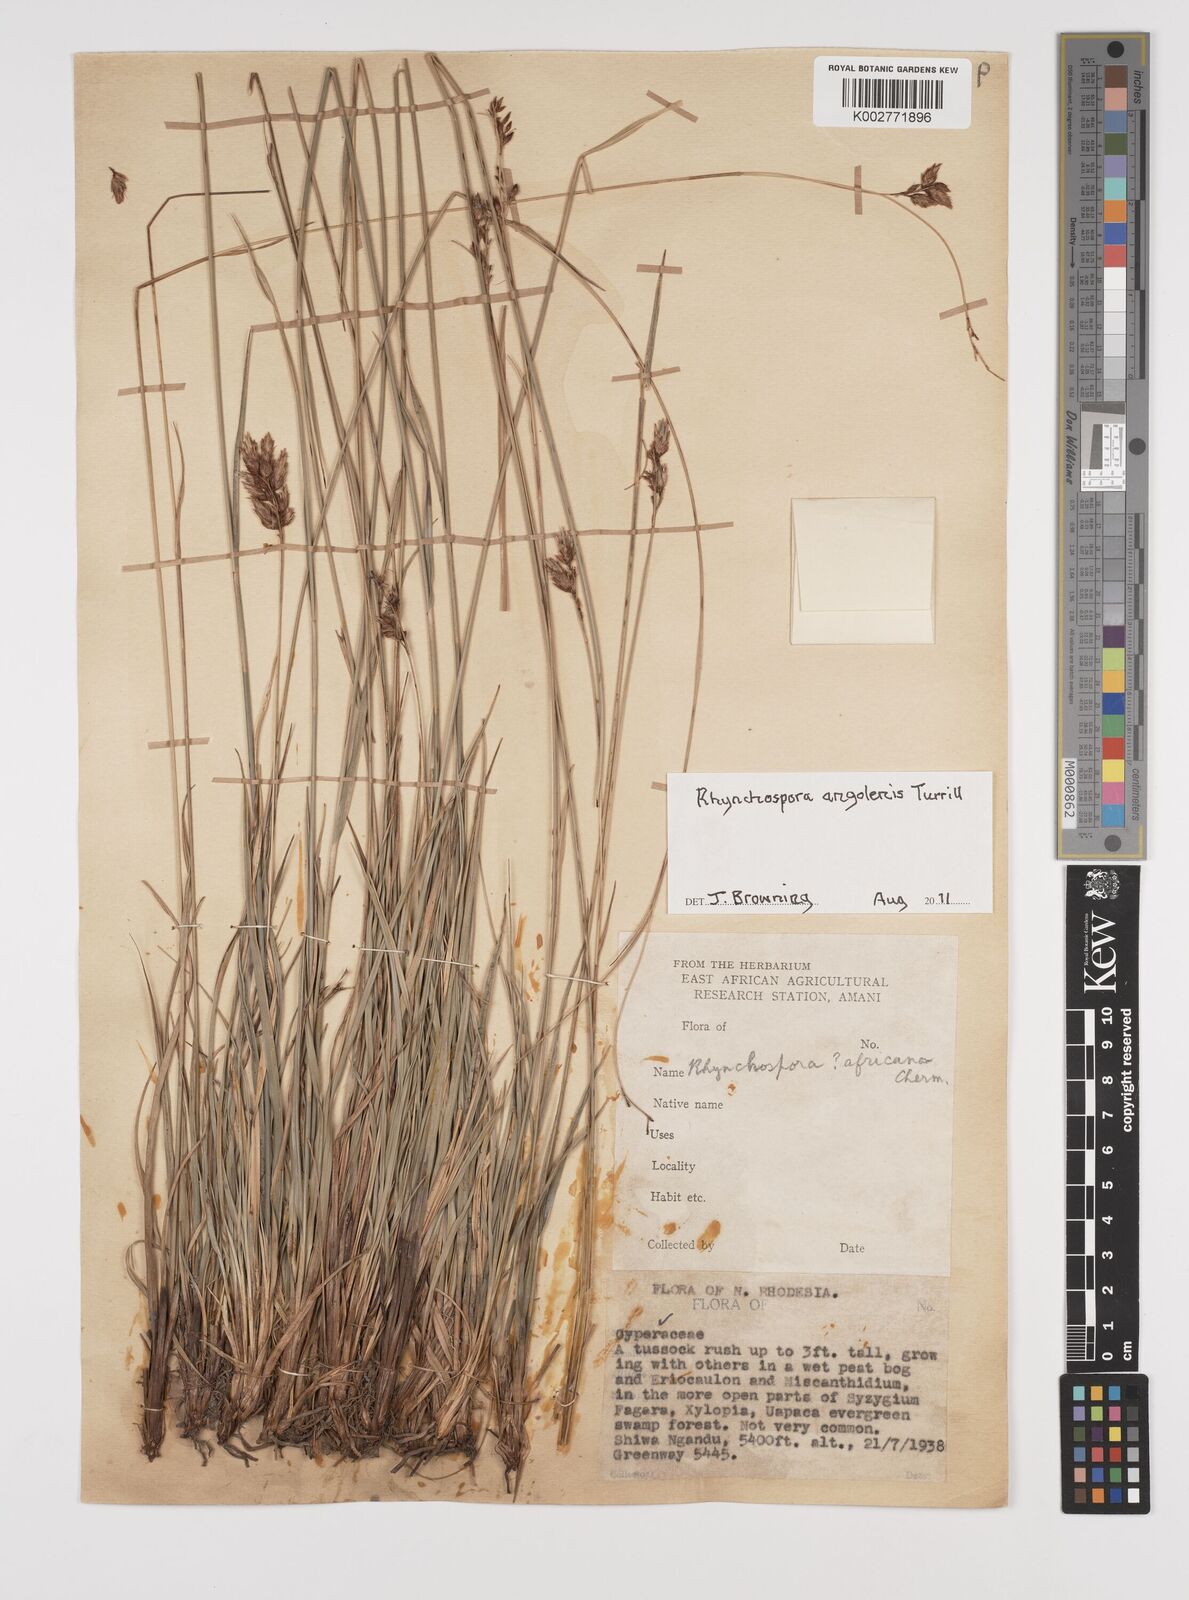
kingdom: Plantae
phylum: Tracheophyta
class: Liliopsida
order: Poales
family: Cyperaceae
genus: Rhynchospora
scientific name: Rhynchospora angolensis
